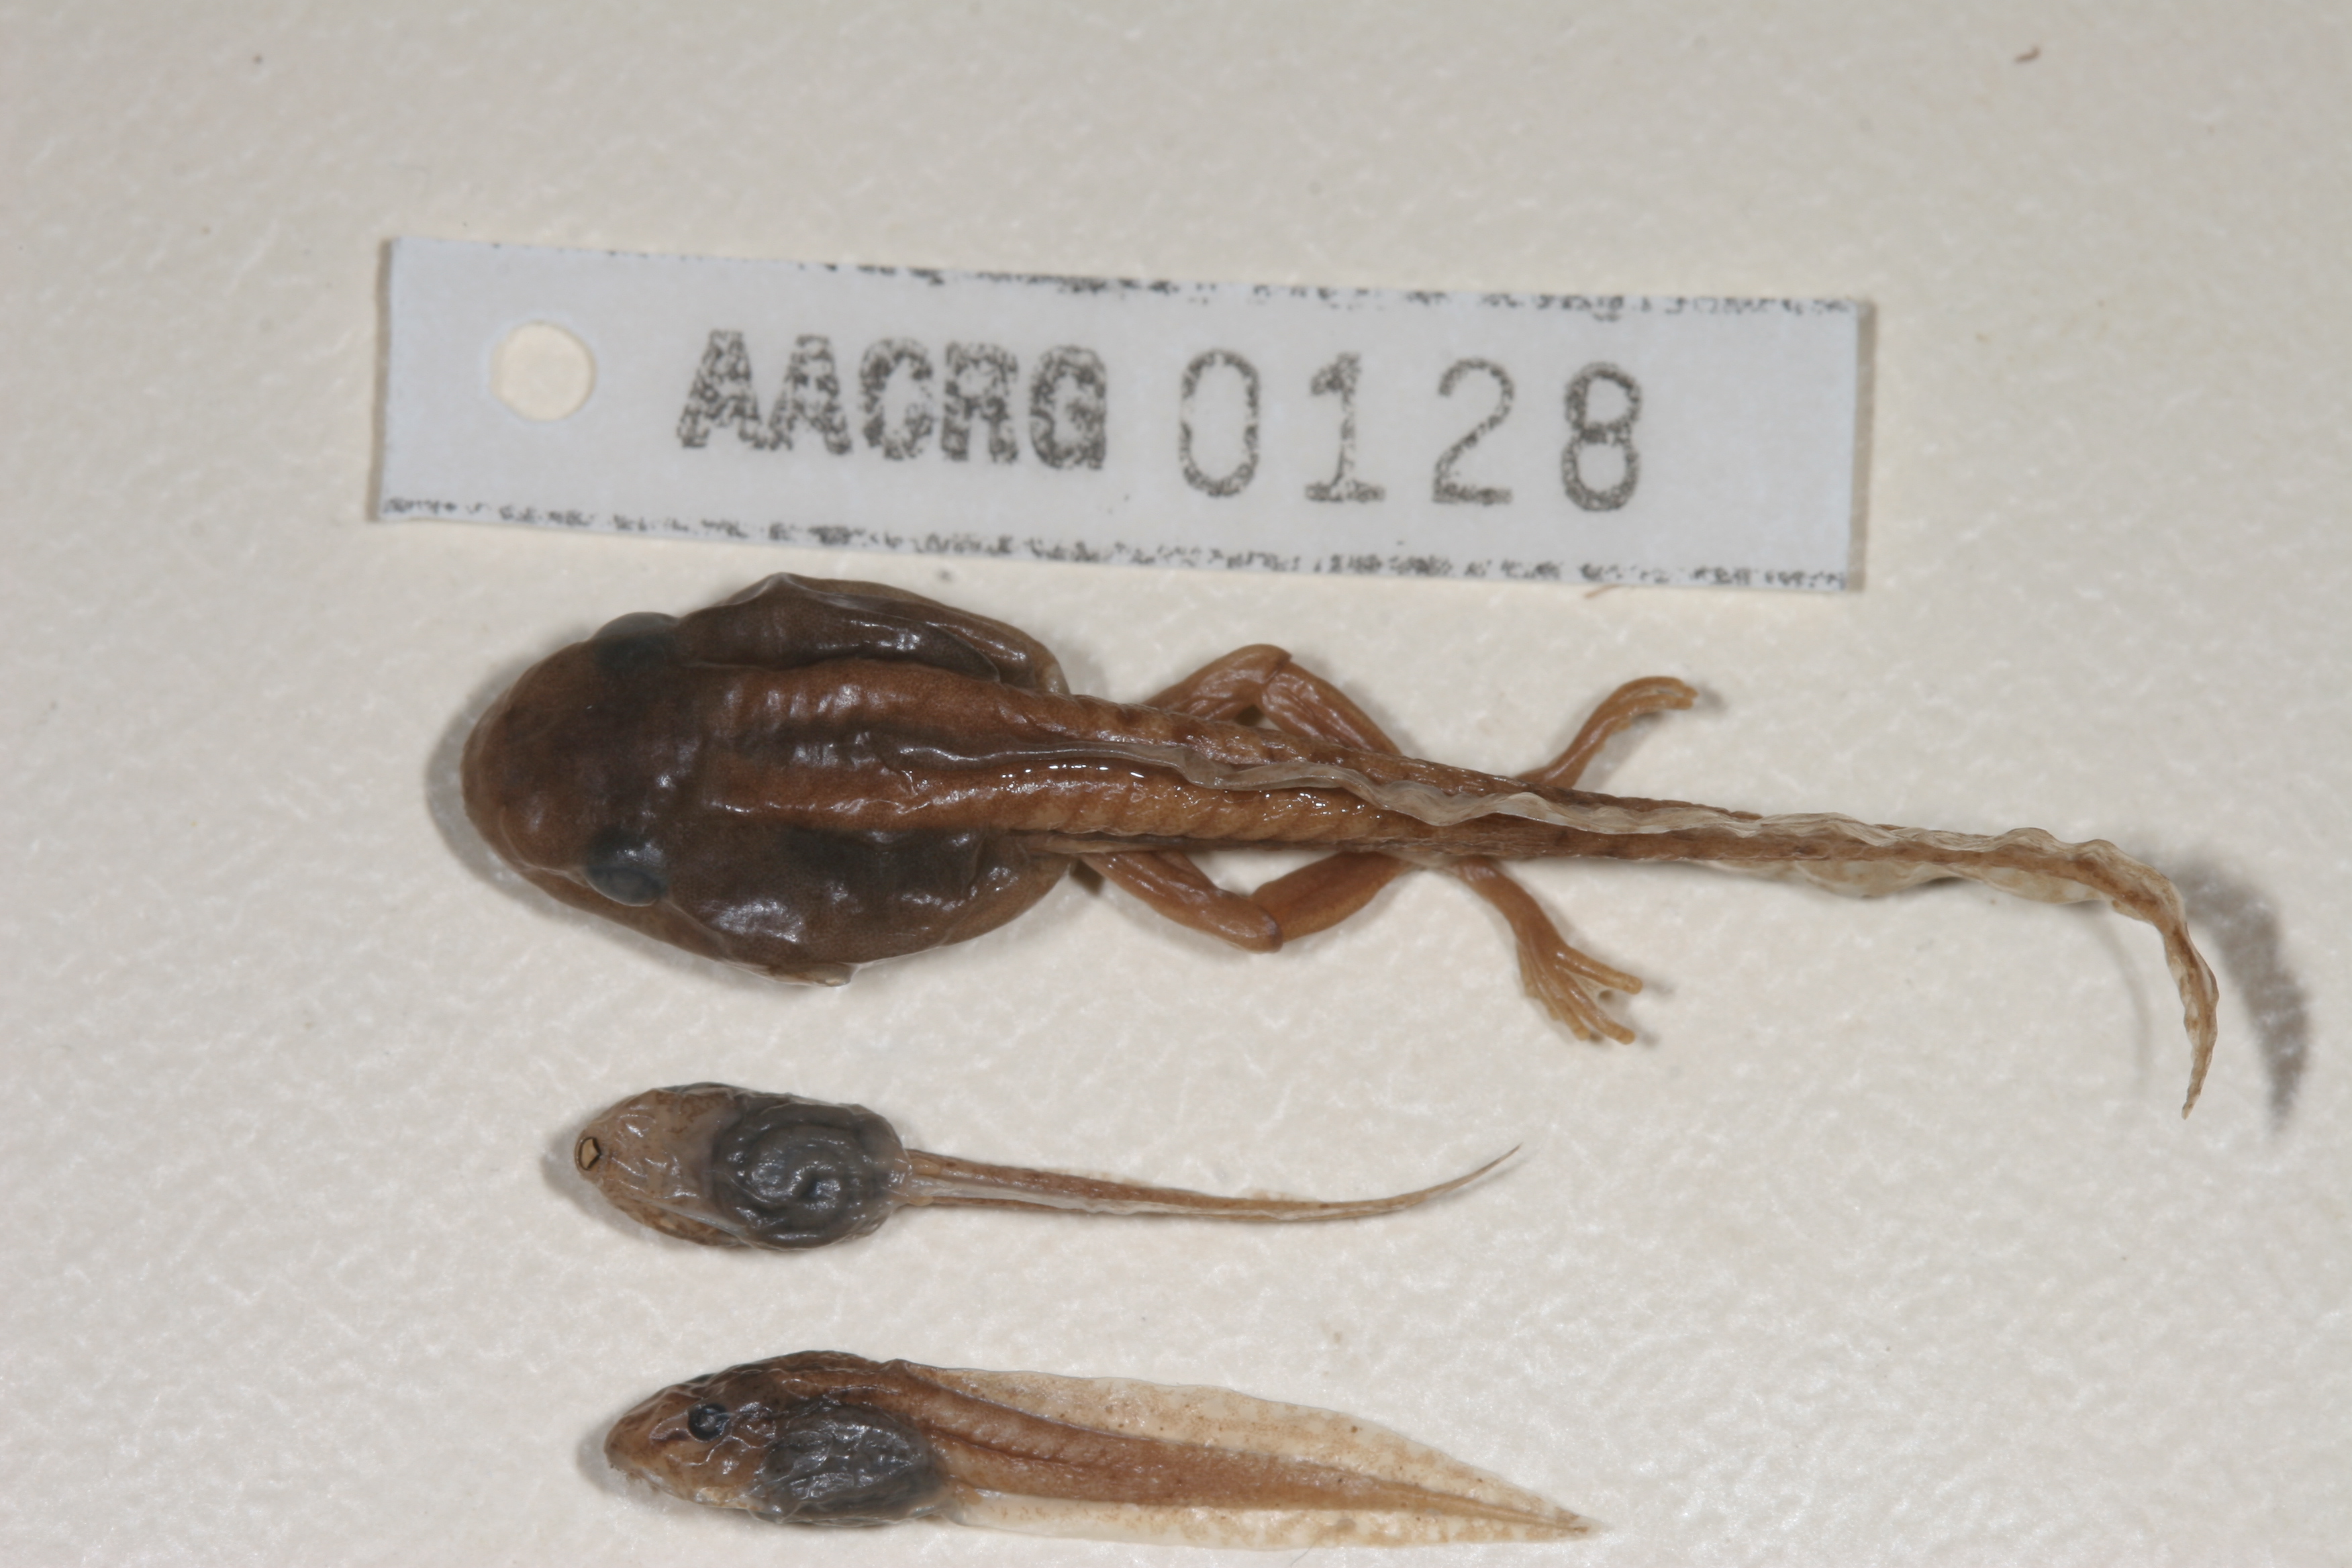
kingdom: Animalia
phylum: Chordata
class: Amphibia
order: Anura
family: Hyperoliidae
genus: Hyperolius
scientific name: Hyperolius semidiscus
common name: Yellow-striped reed frog
